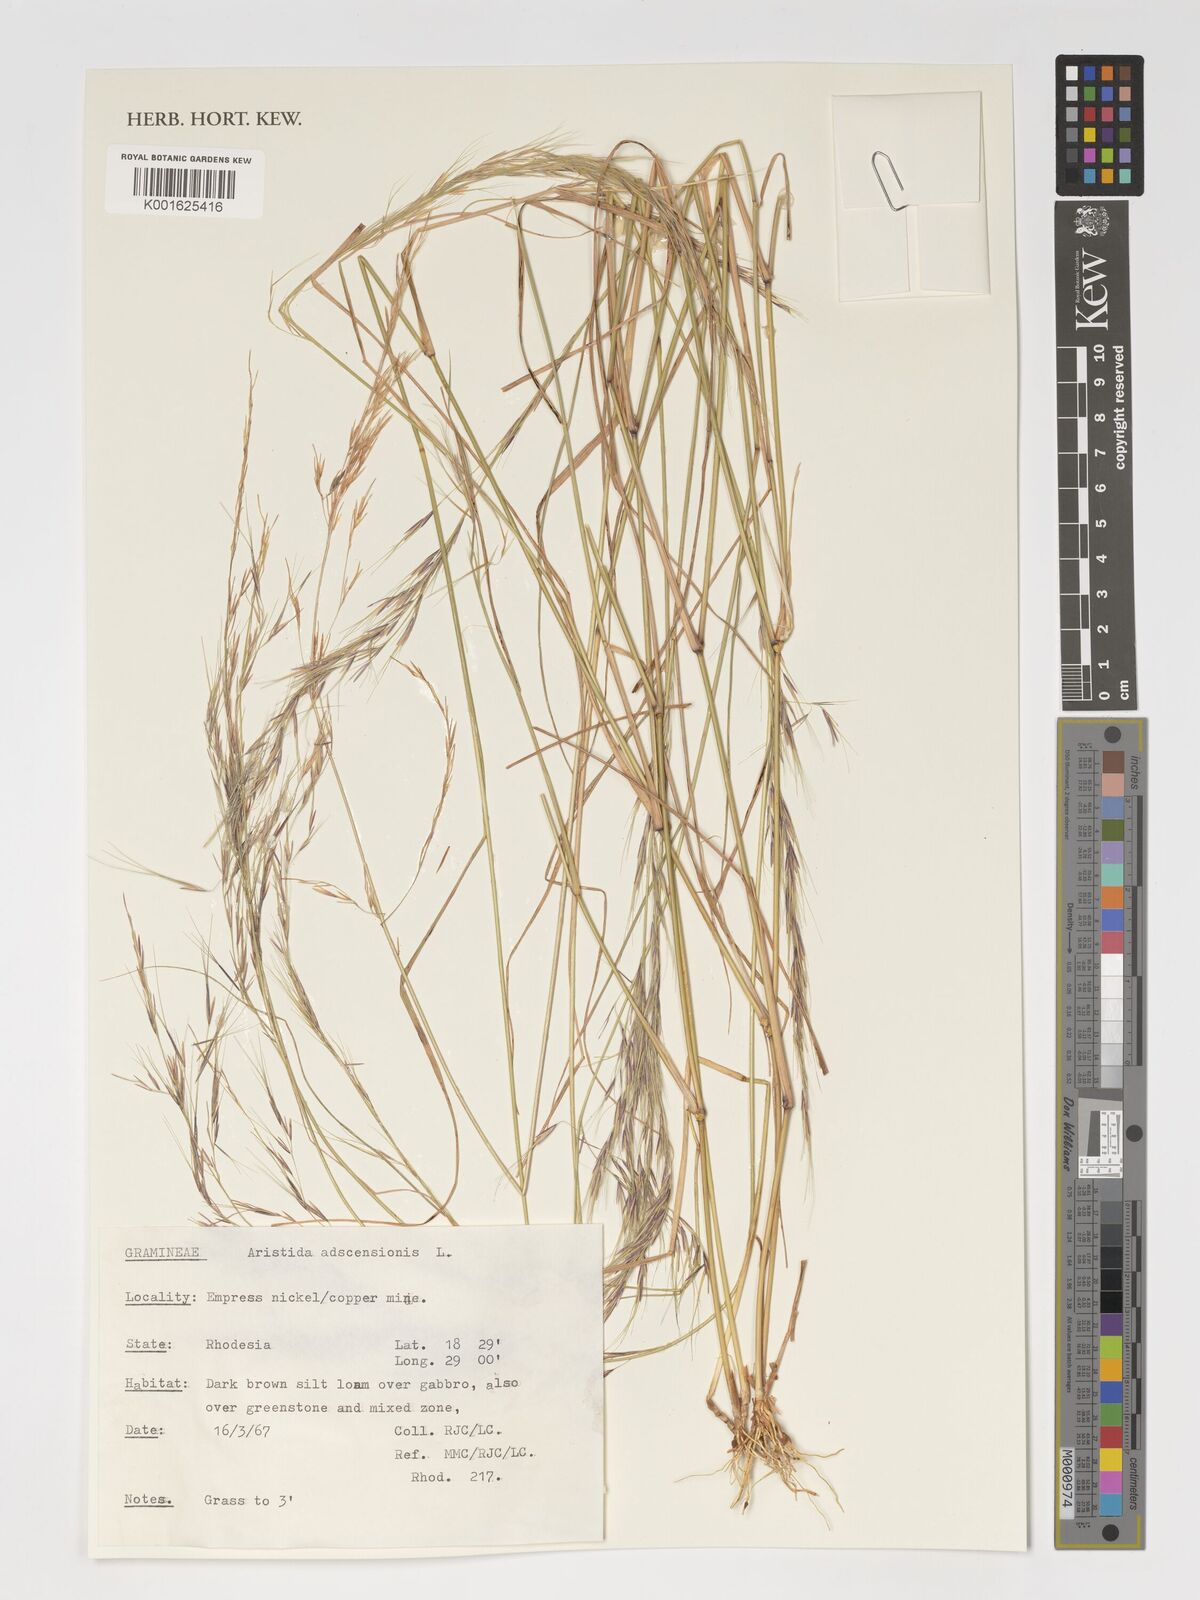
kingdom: Plantae
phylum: Tracheophyta
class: Liliopsida
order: Poales
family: Poaceae
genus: Aristida
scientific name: Aristida adscensionis
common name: Sixweeks threeawn
